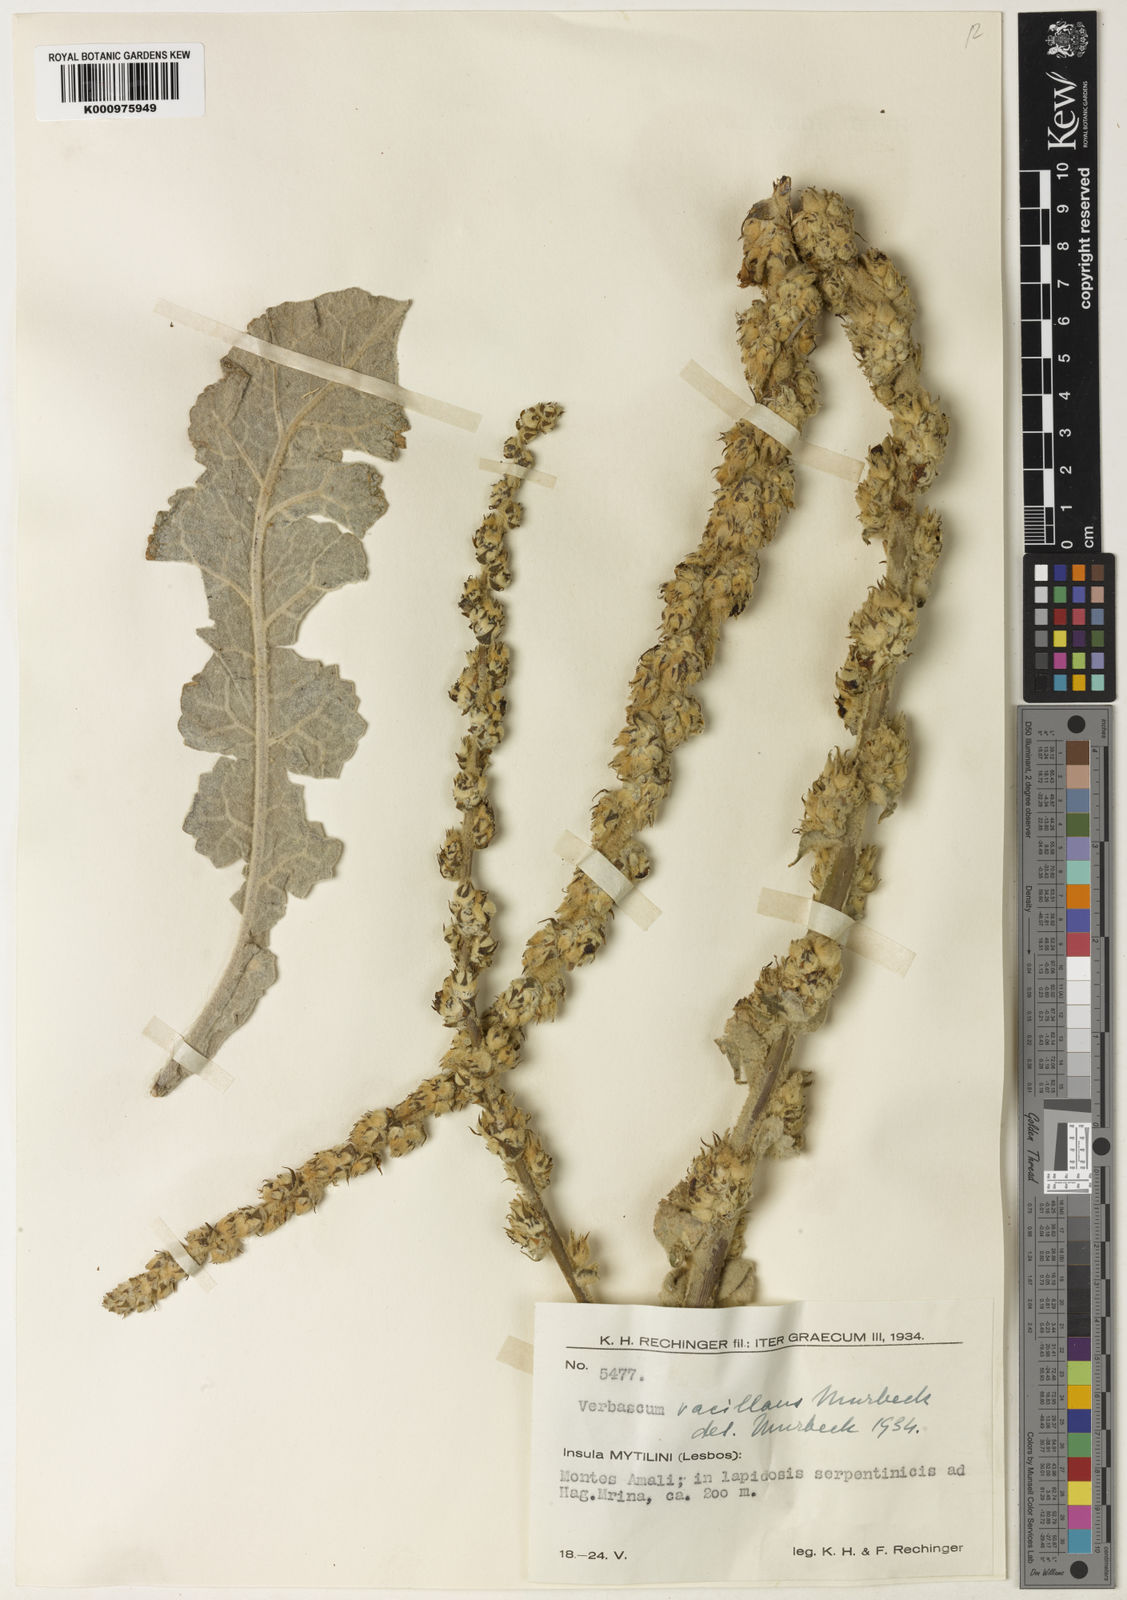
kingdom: Plantae
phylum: Tracheophyta
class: Magnoliopsida
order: Lamiales
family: Scrophulariaceae
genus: Verbascum
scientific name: Verbascum vacillans
